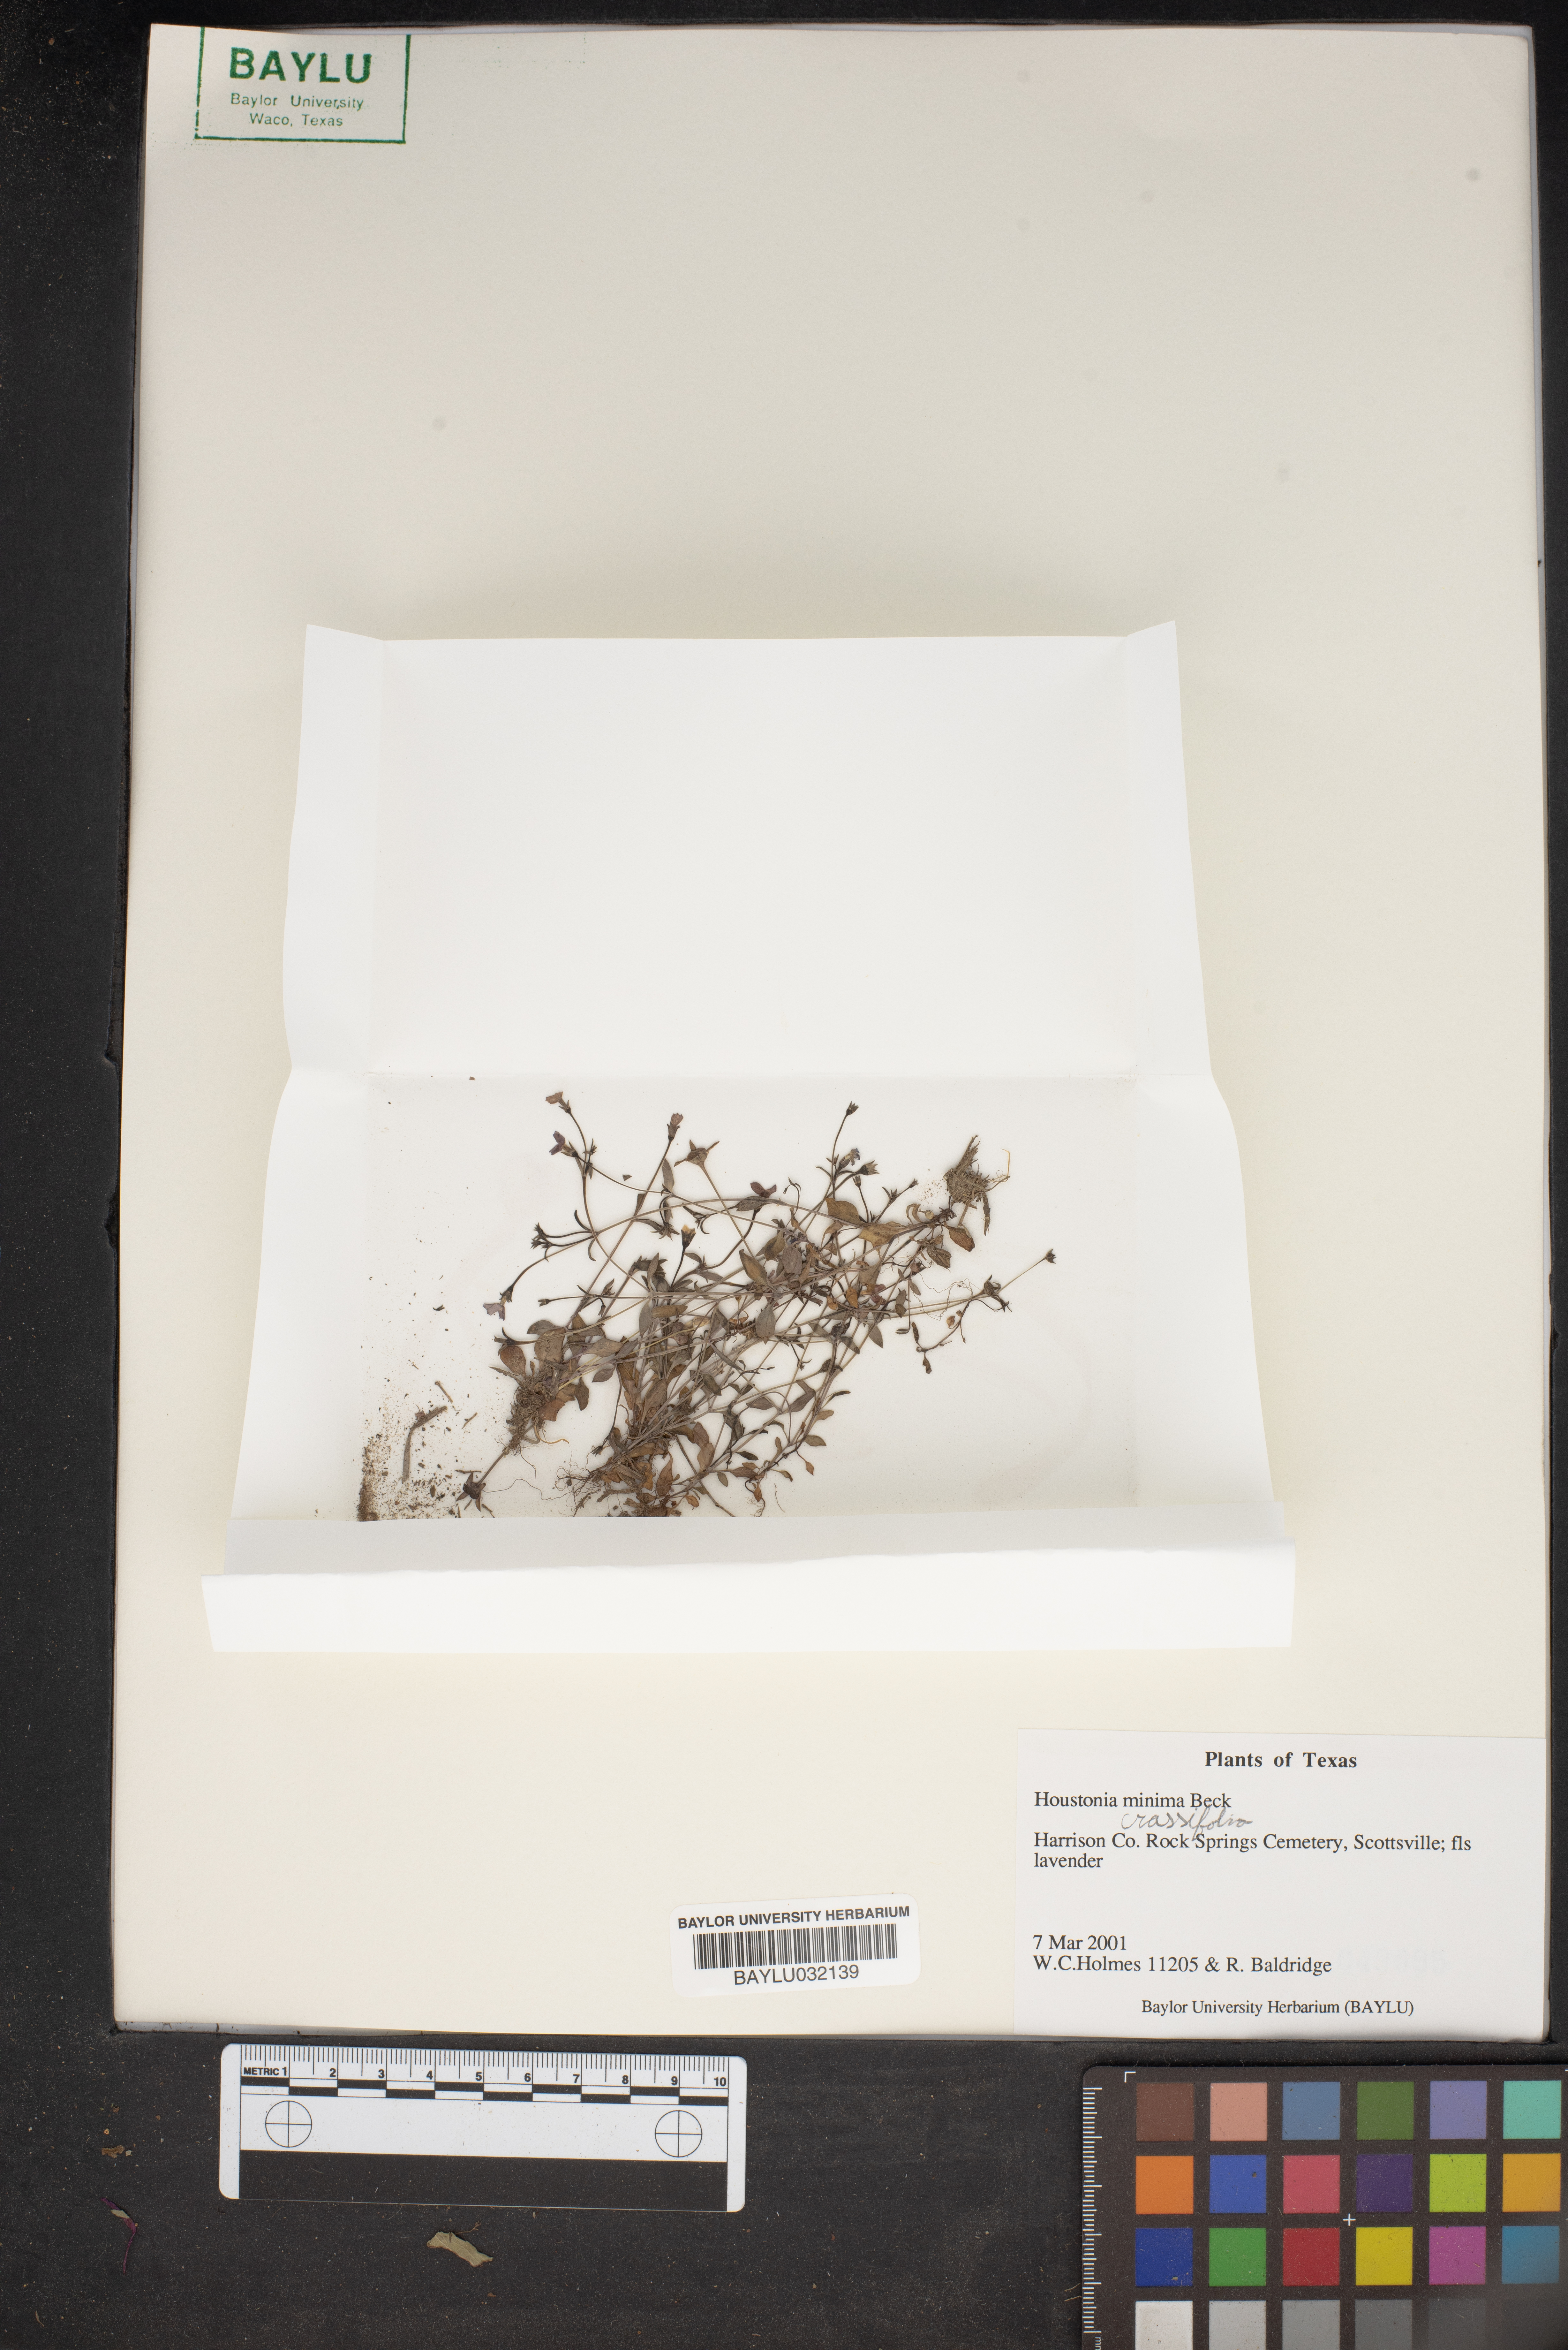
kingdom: Plantae
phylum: Tracheophyta
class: Magnoliopsida
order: Gentianales
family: Rubiaceae
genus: Houstonia
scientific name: Houstonia pusilla
